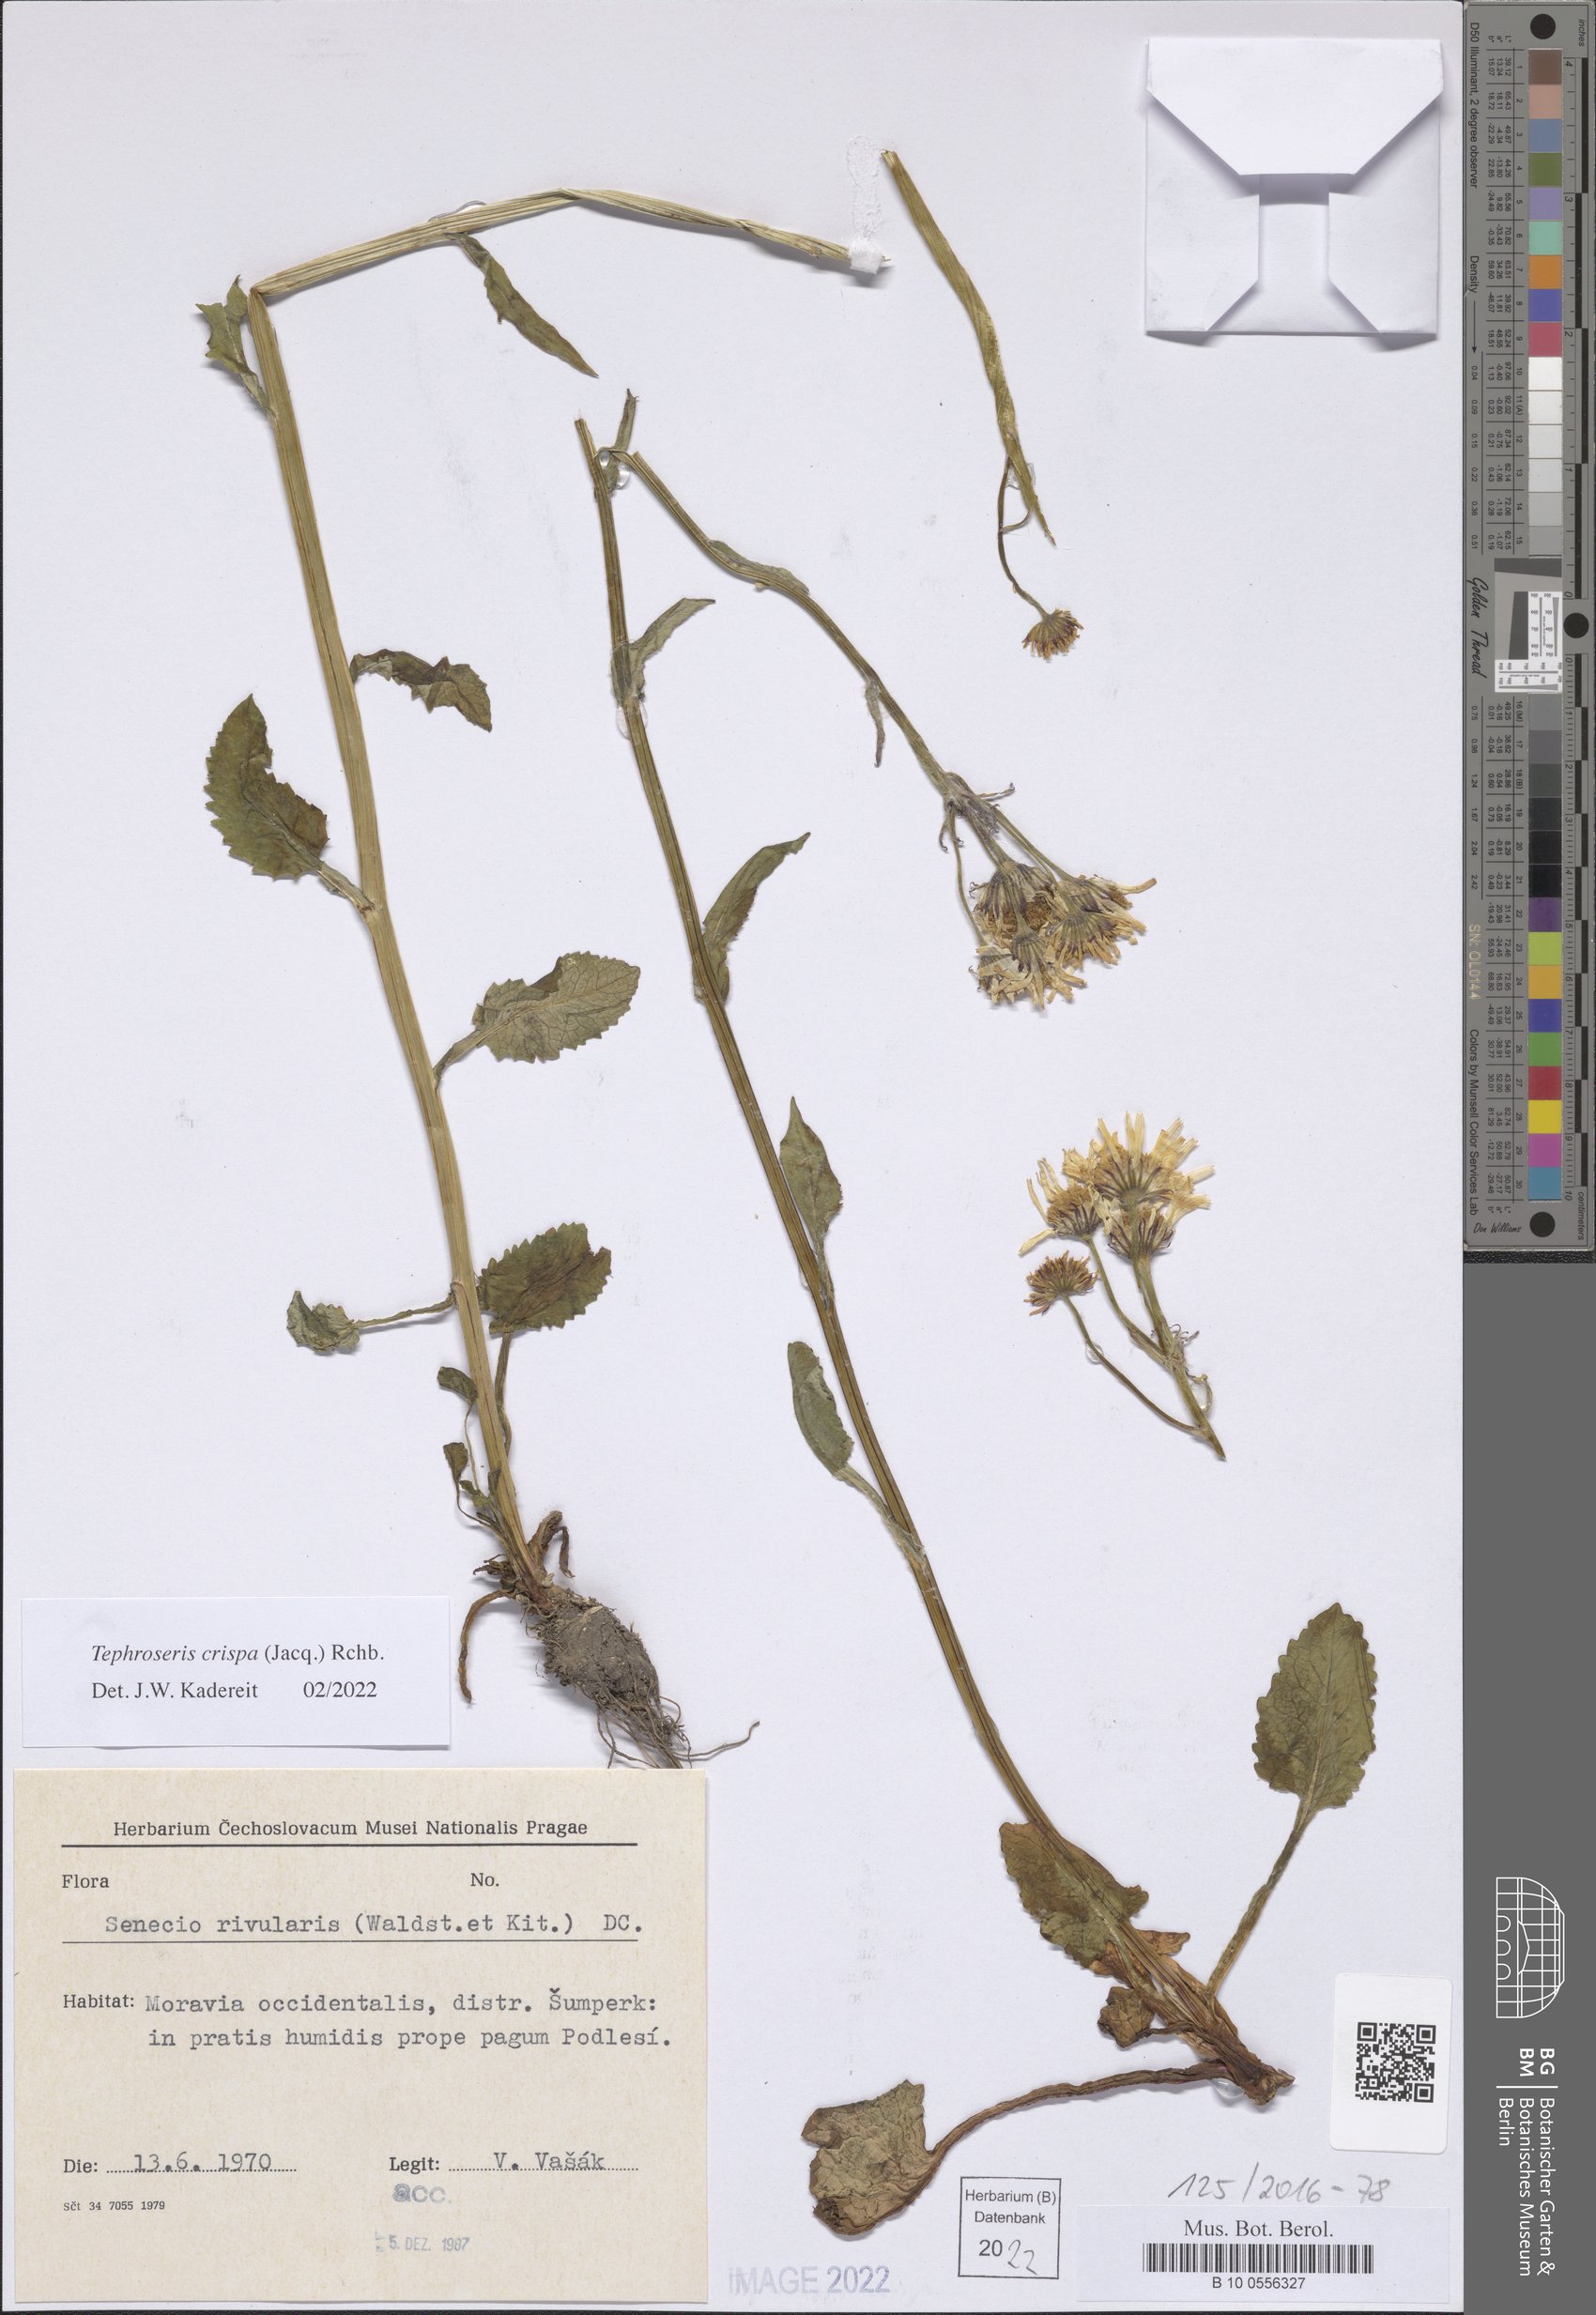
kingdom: Plantae
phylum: Tracheophyta
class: Magnoliopsida
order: Asterales
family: Asteraceae
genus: Tephroseris
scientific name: Tephroseris crispa
